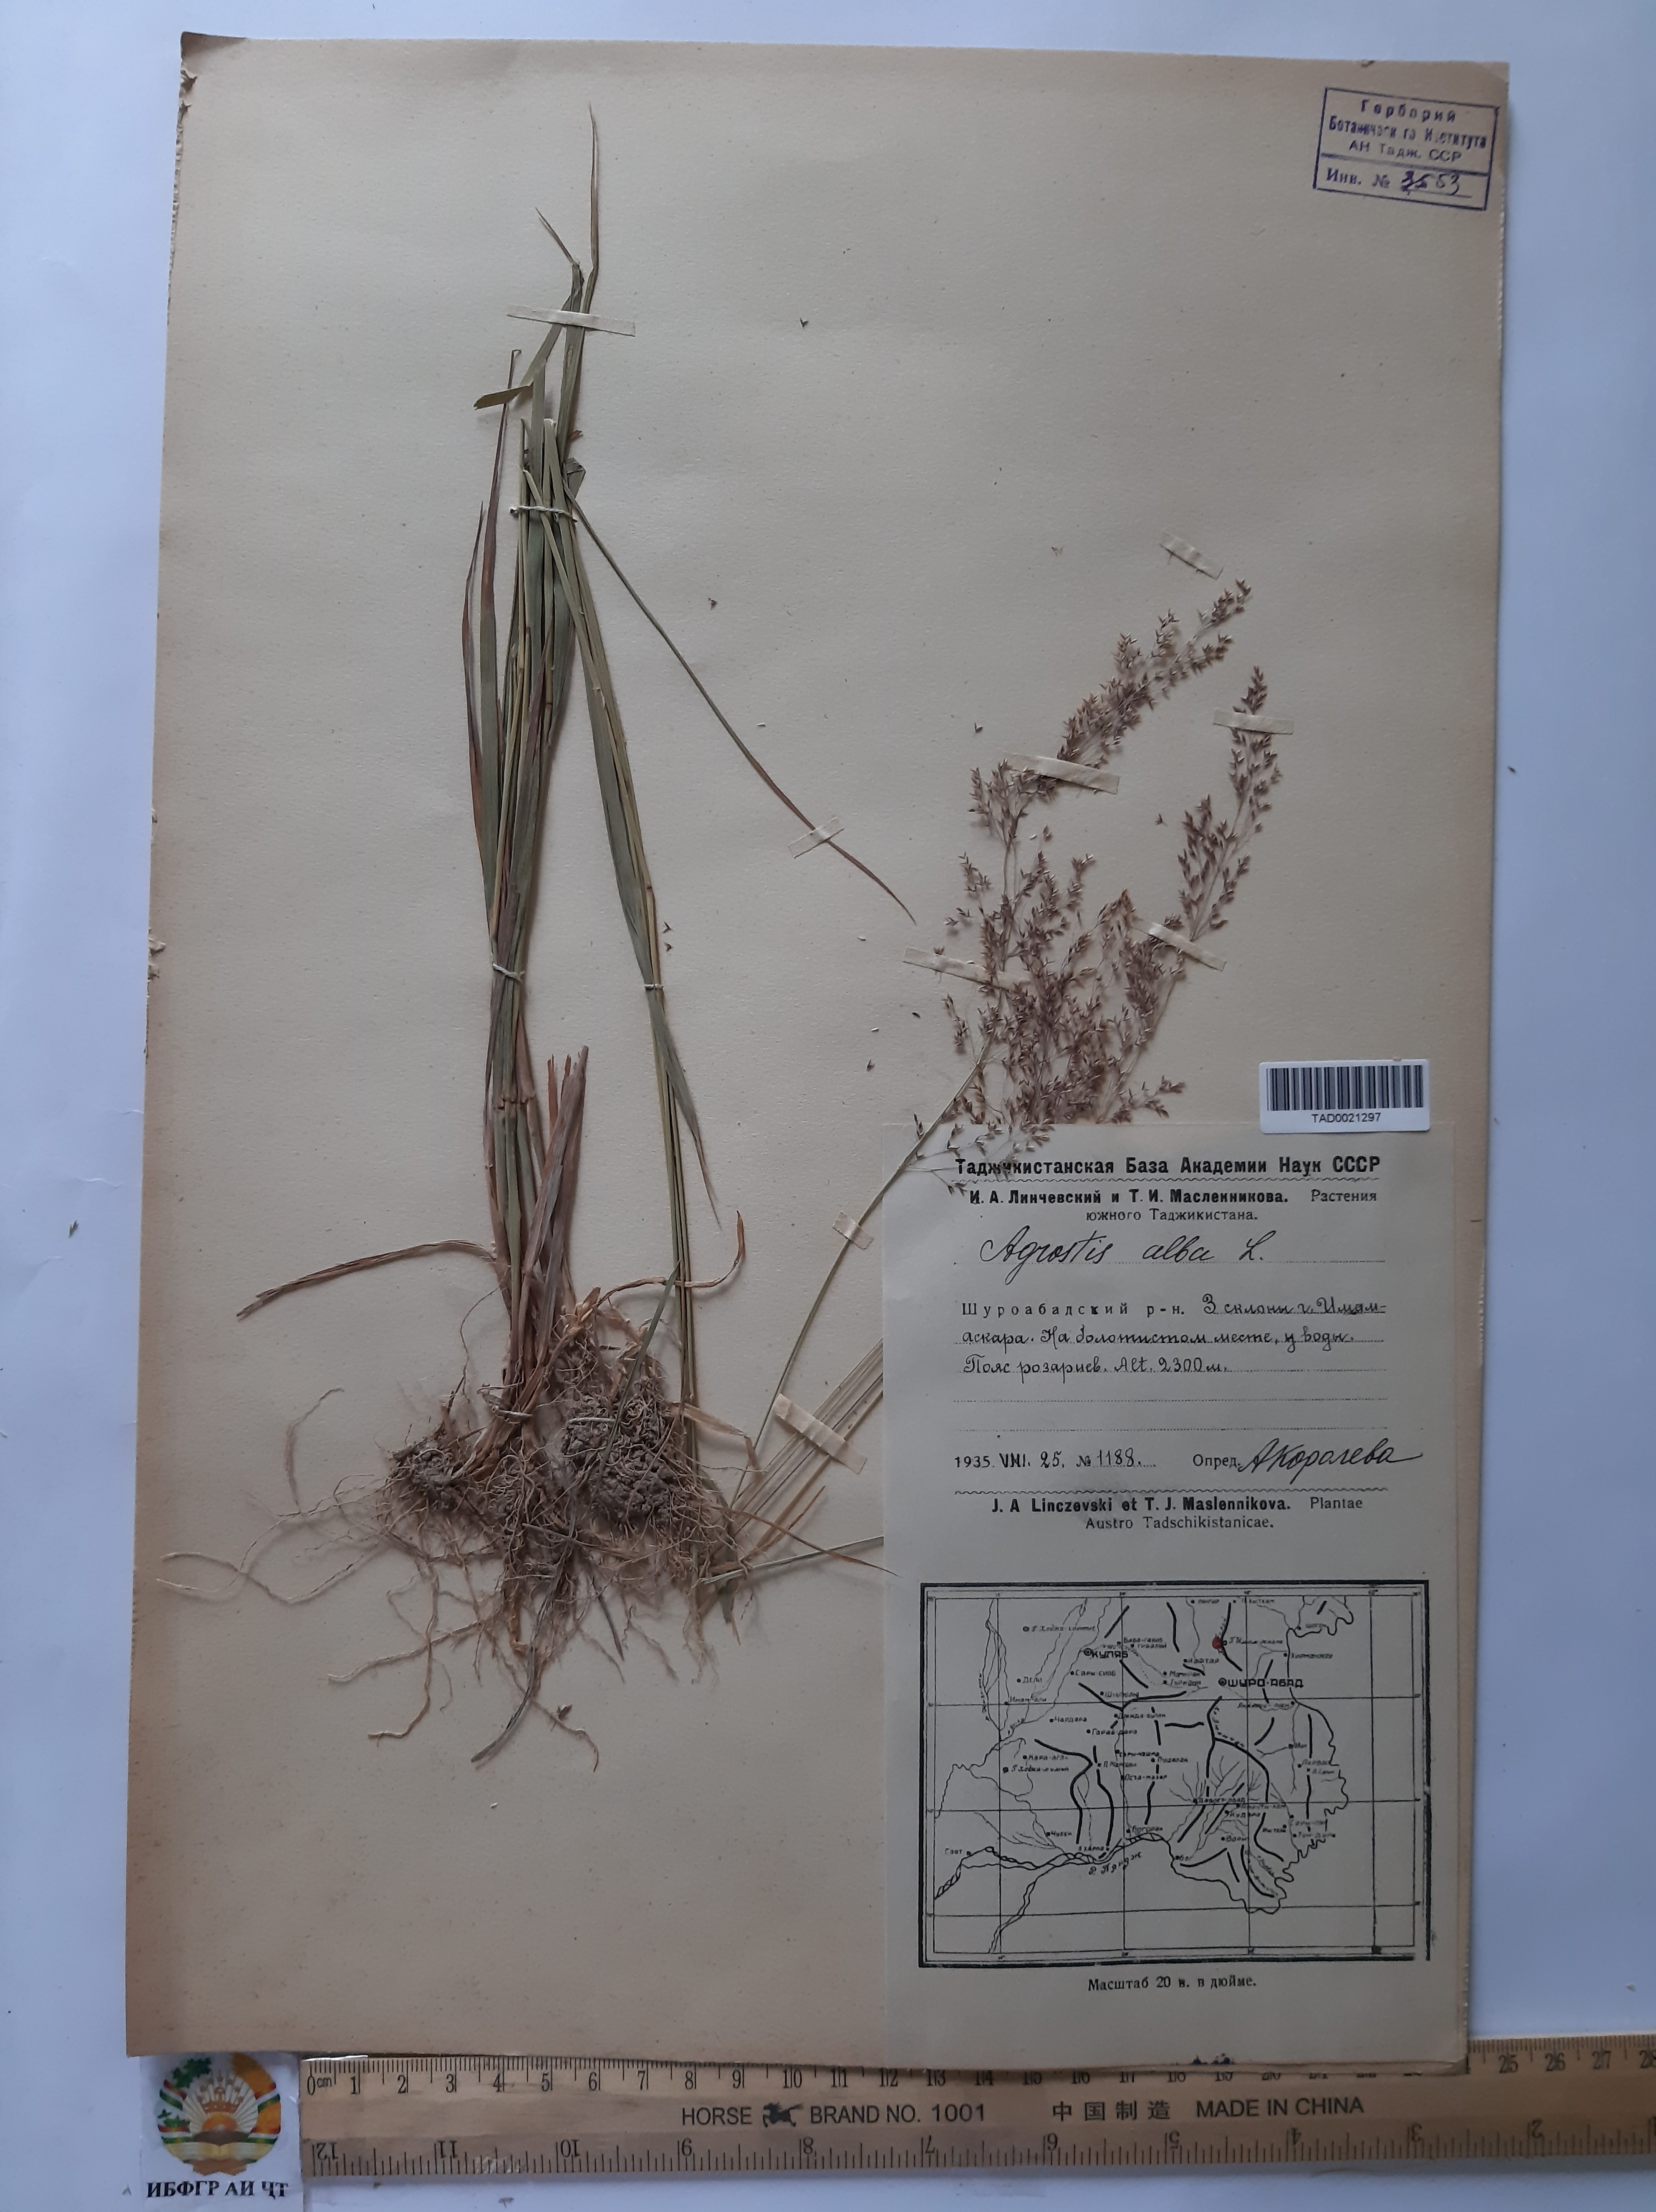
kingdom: Plantae
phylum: Tracheophyta
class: Liliopsida
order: Poales
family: Poaceae
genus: Poa
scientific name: Poa nemoralis
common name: Wood bluegrass
